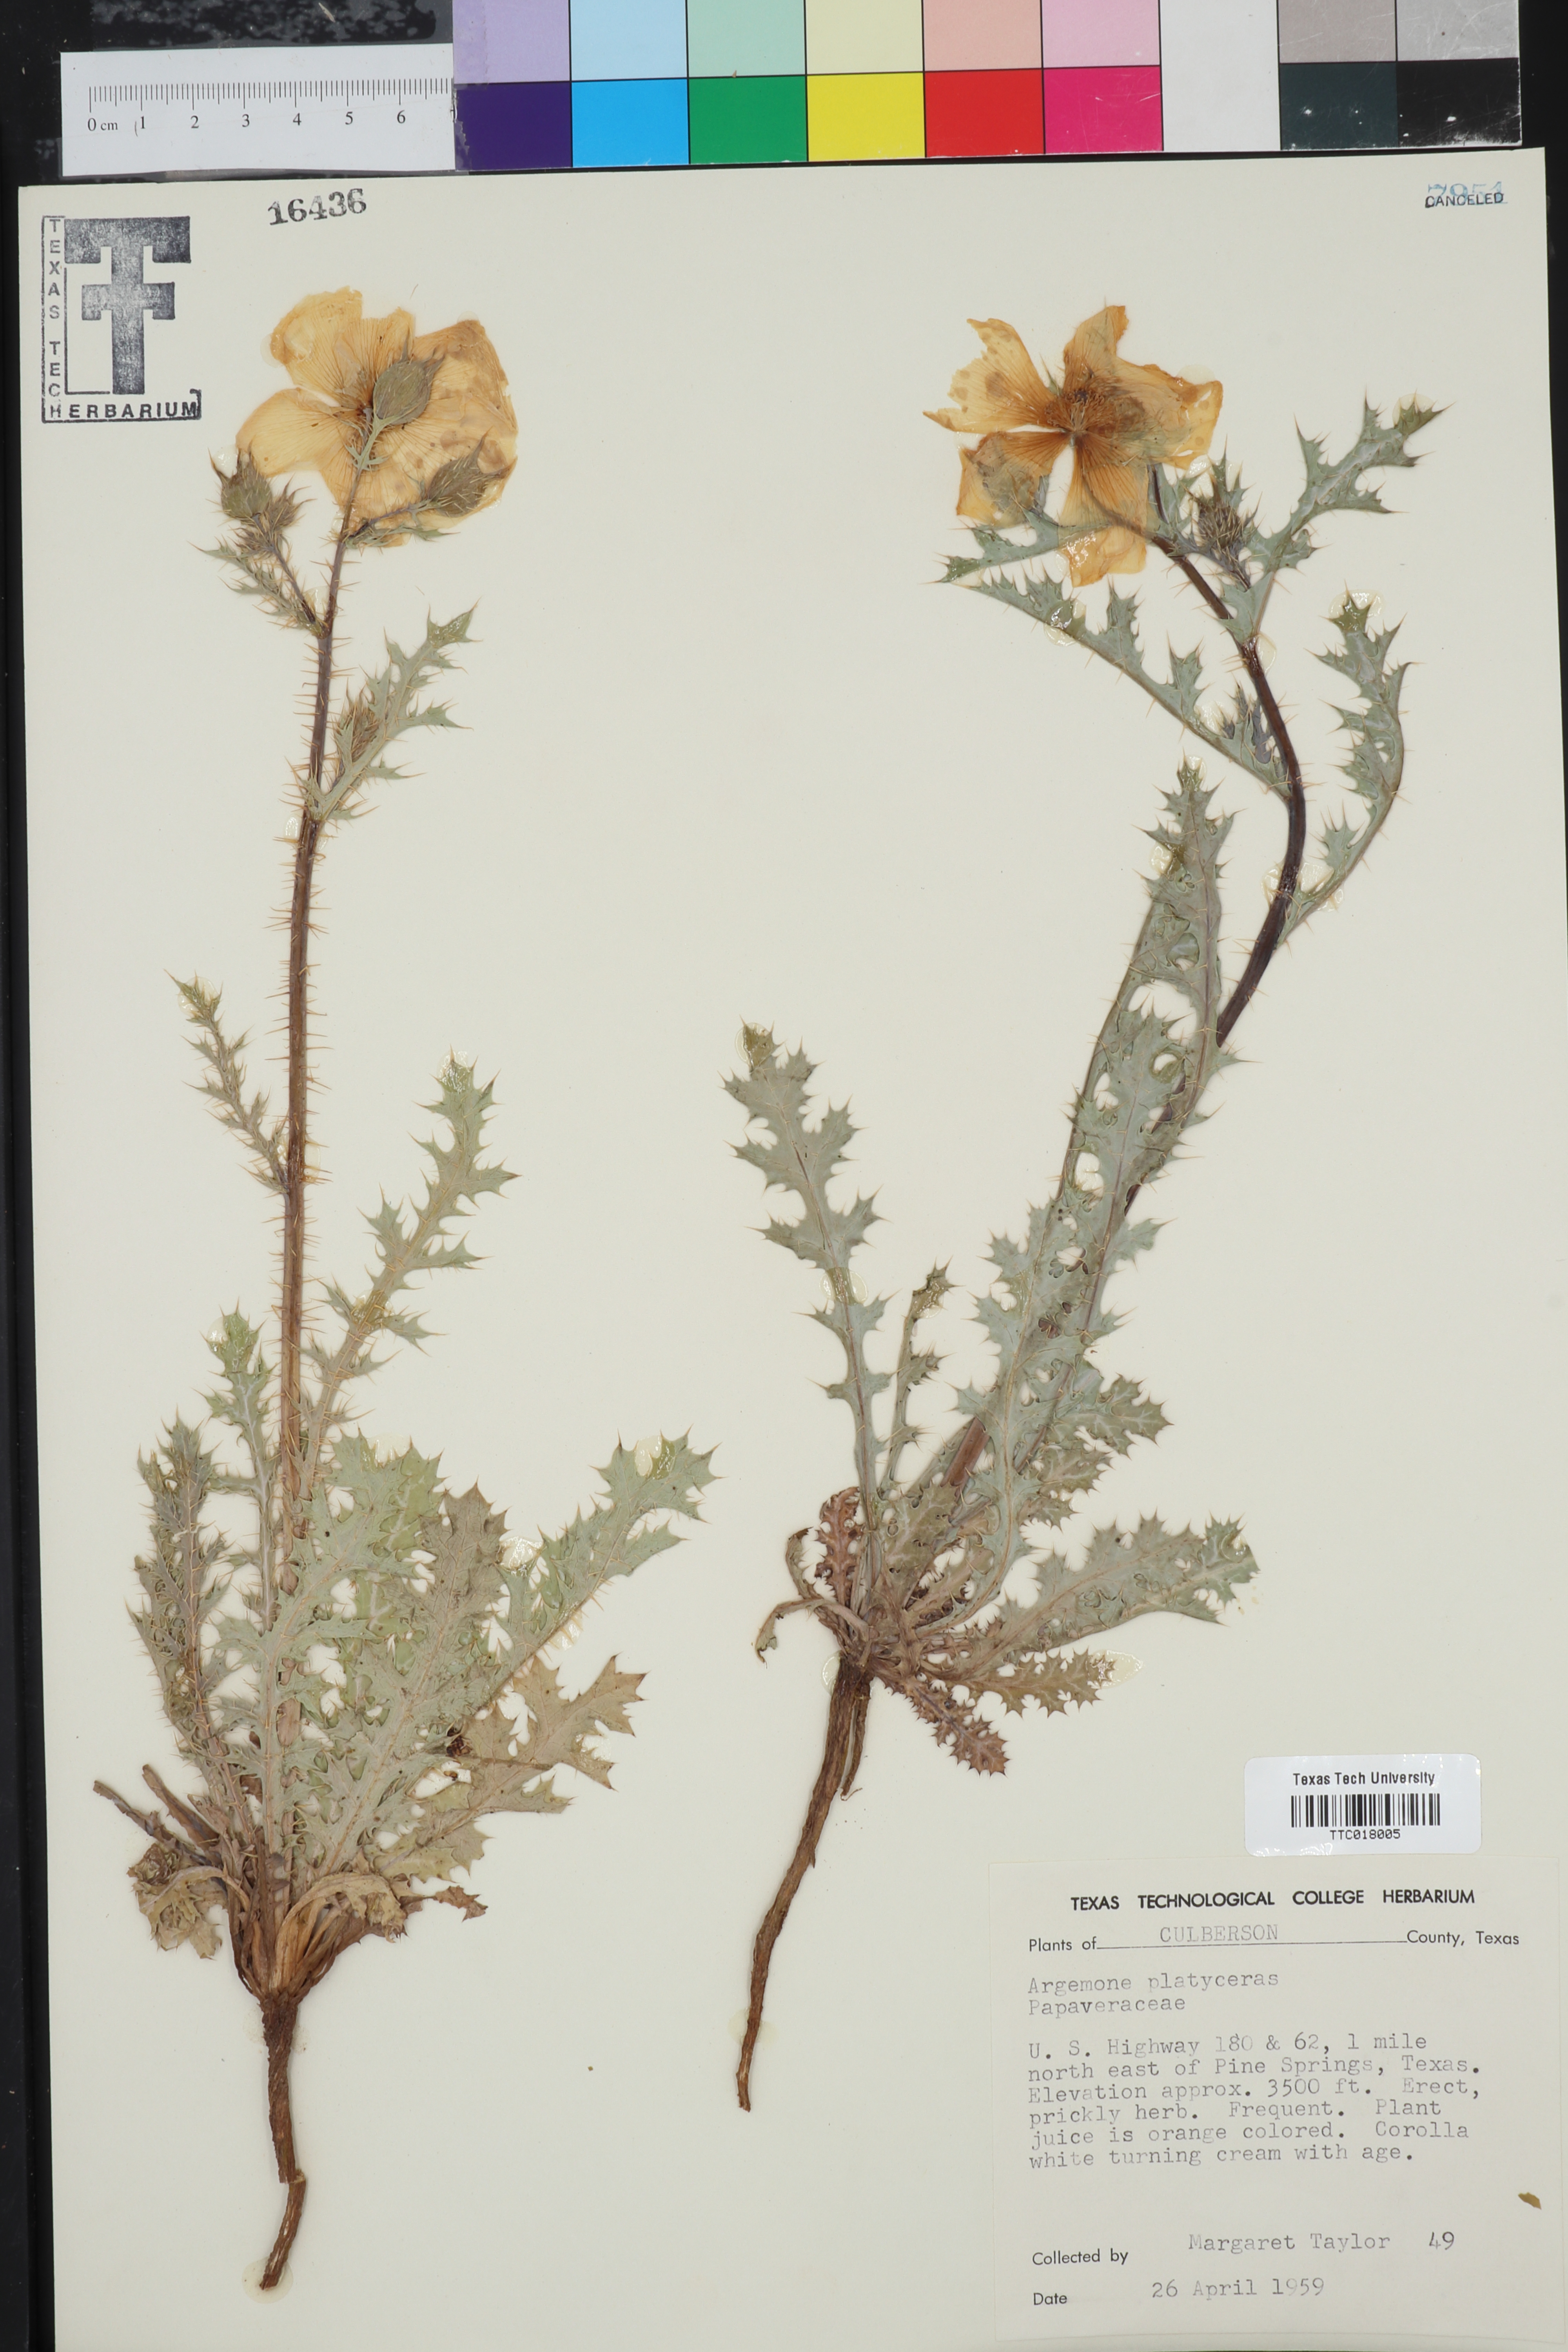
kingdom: Plantae
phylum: Tracheophyta
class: Magnoliopsida
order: Ranunculales
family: Papaveraceae
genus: Argemone
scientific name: Argemone platyceras
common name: Crested-poppy
